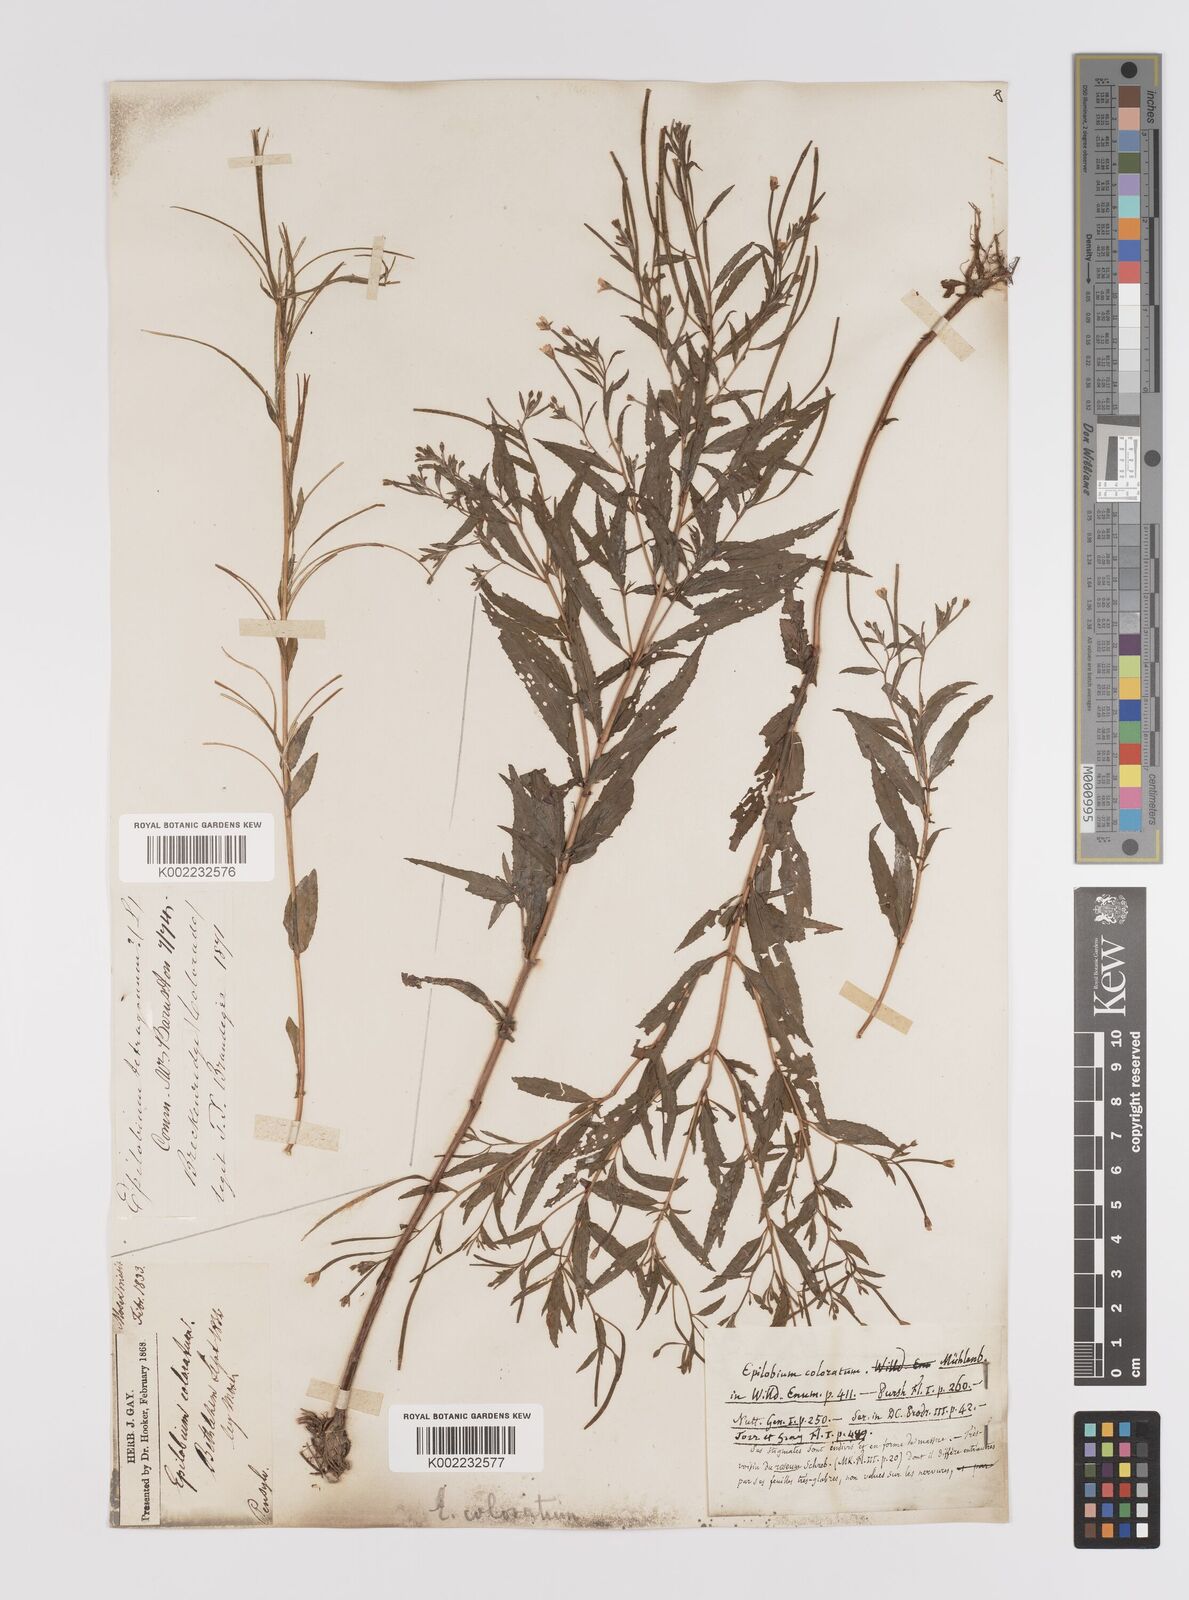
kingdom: Plantae
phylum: Tracheophyta
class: Magnoliopsida
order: Myrtales
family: Onagraceae
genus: Epilobium
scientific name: Epilobium coloratum
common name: Bronze willowherb
